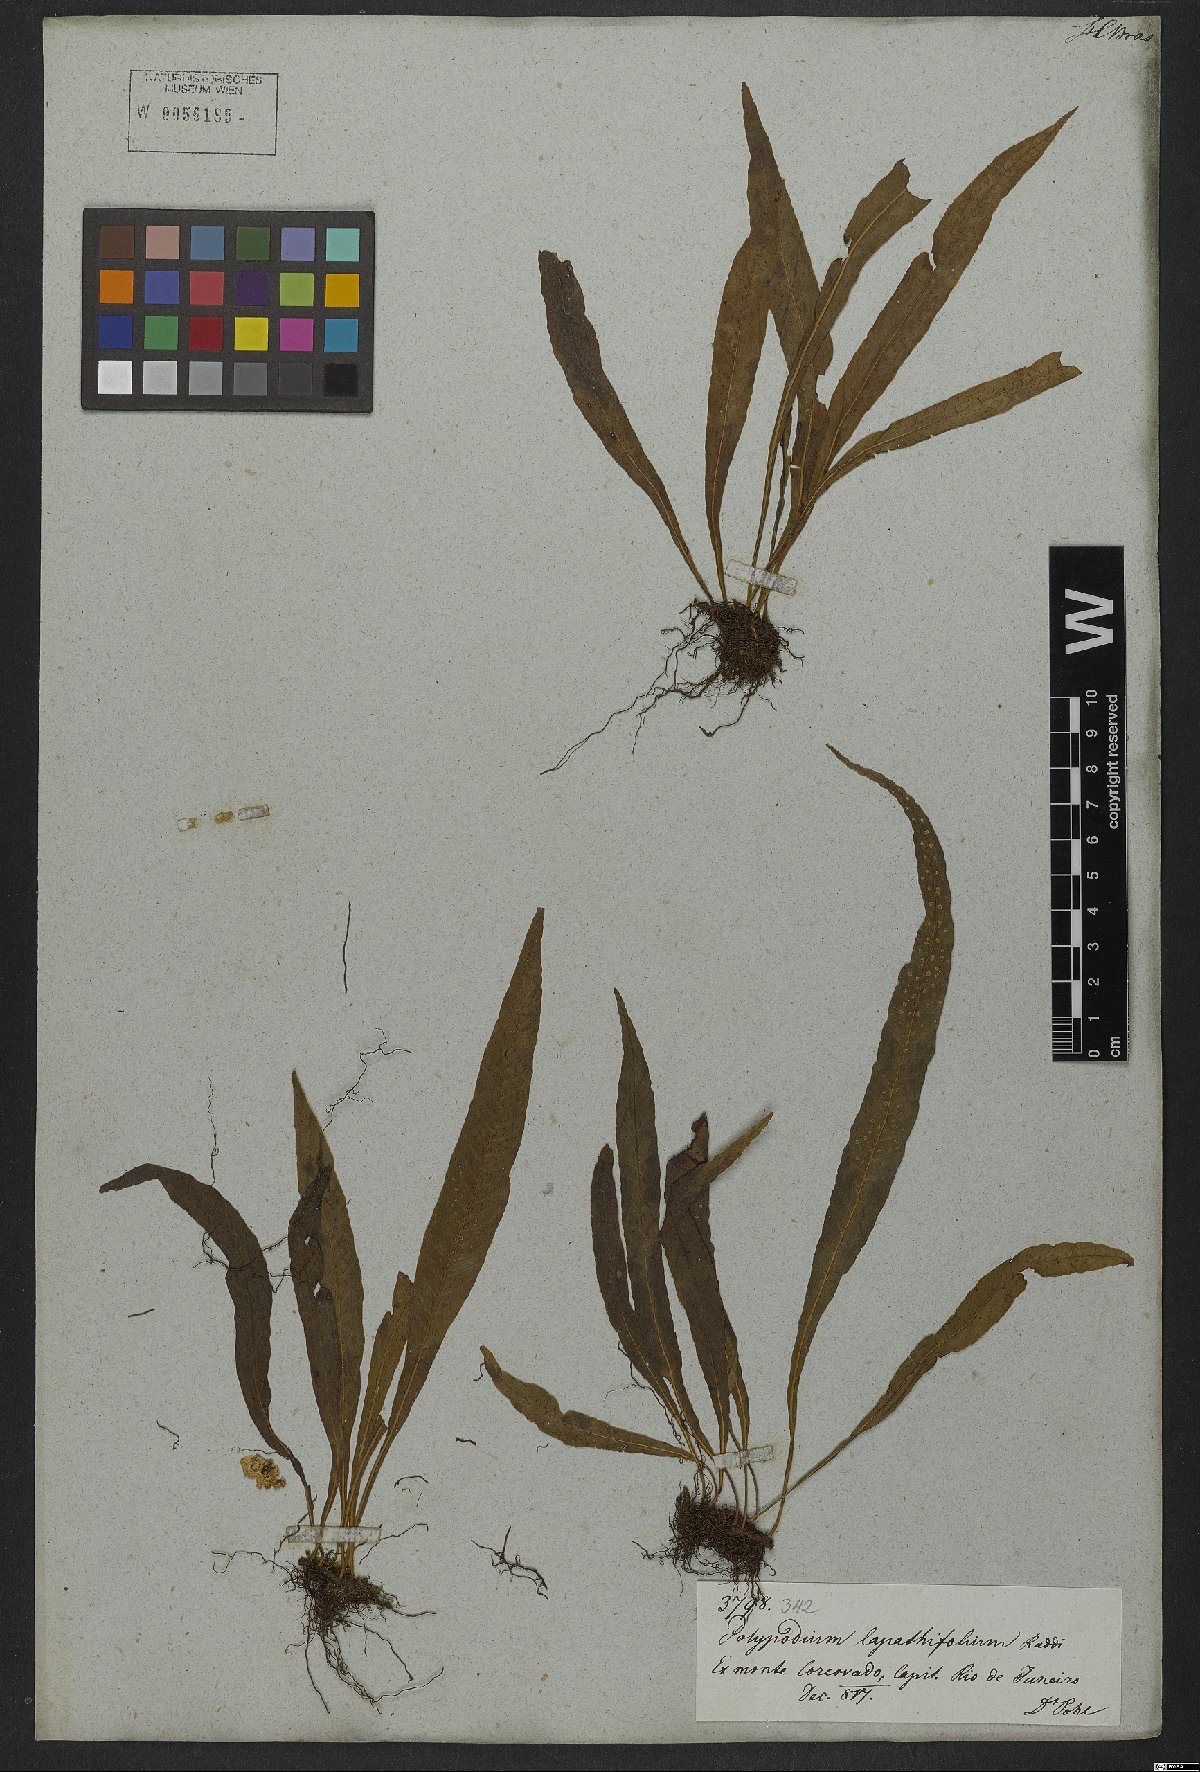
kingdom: Plantae
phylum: Tracheophyta
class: Polypodiopsida
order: Polypodiales
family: Polypodiaceae
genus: Serpocaulon
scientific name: Serpocaulon levigatum
